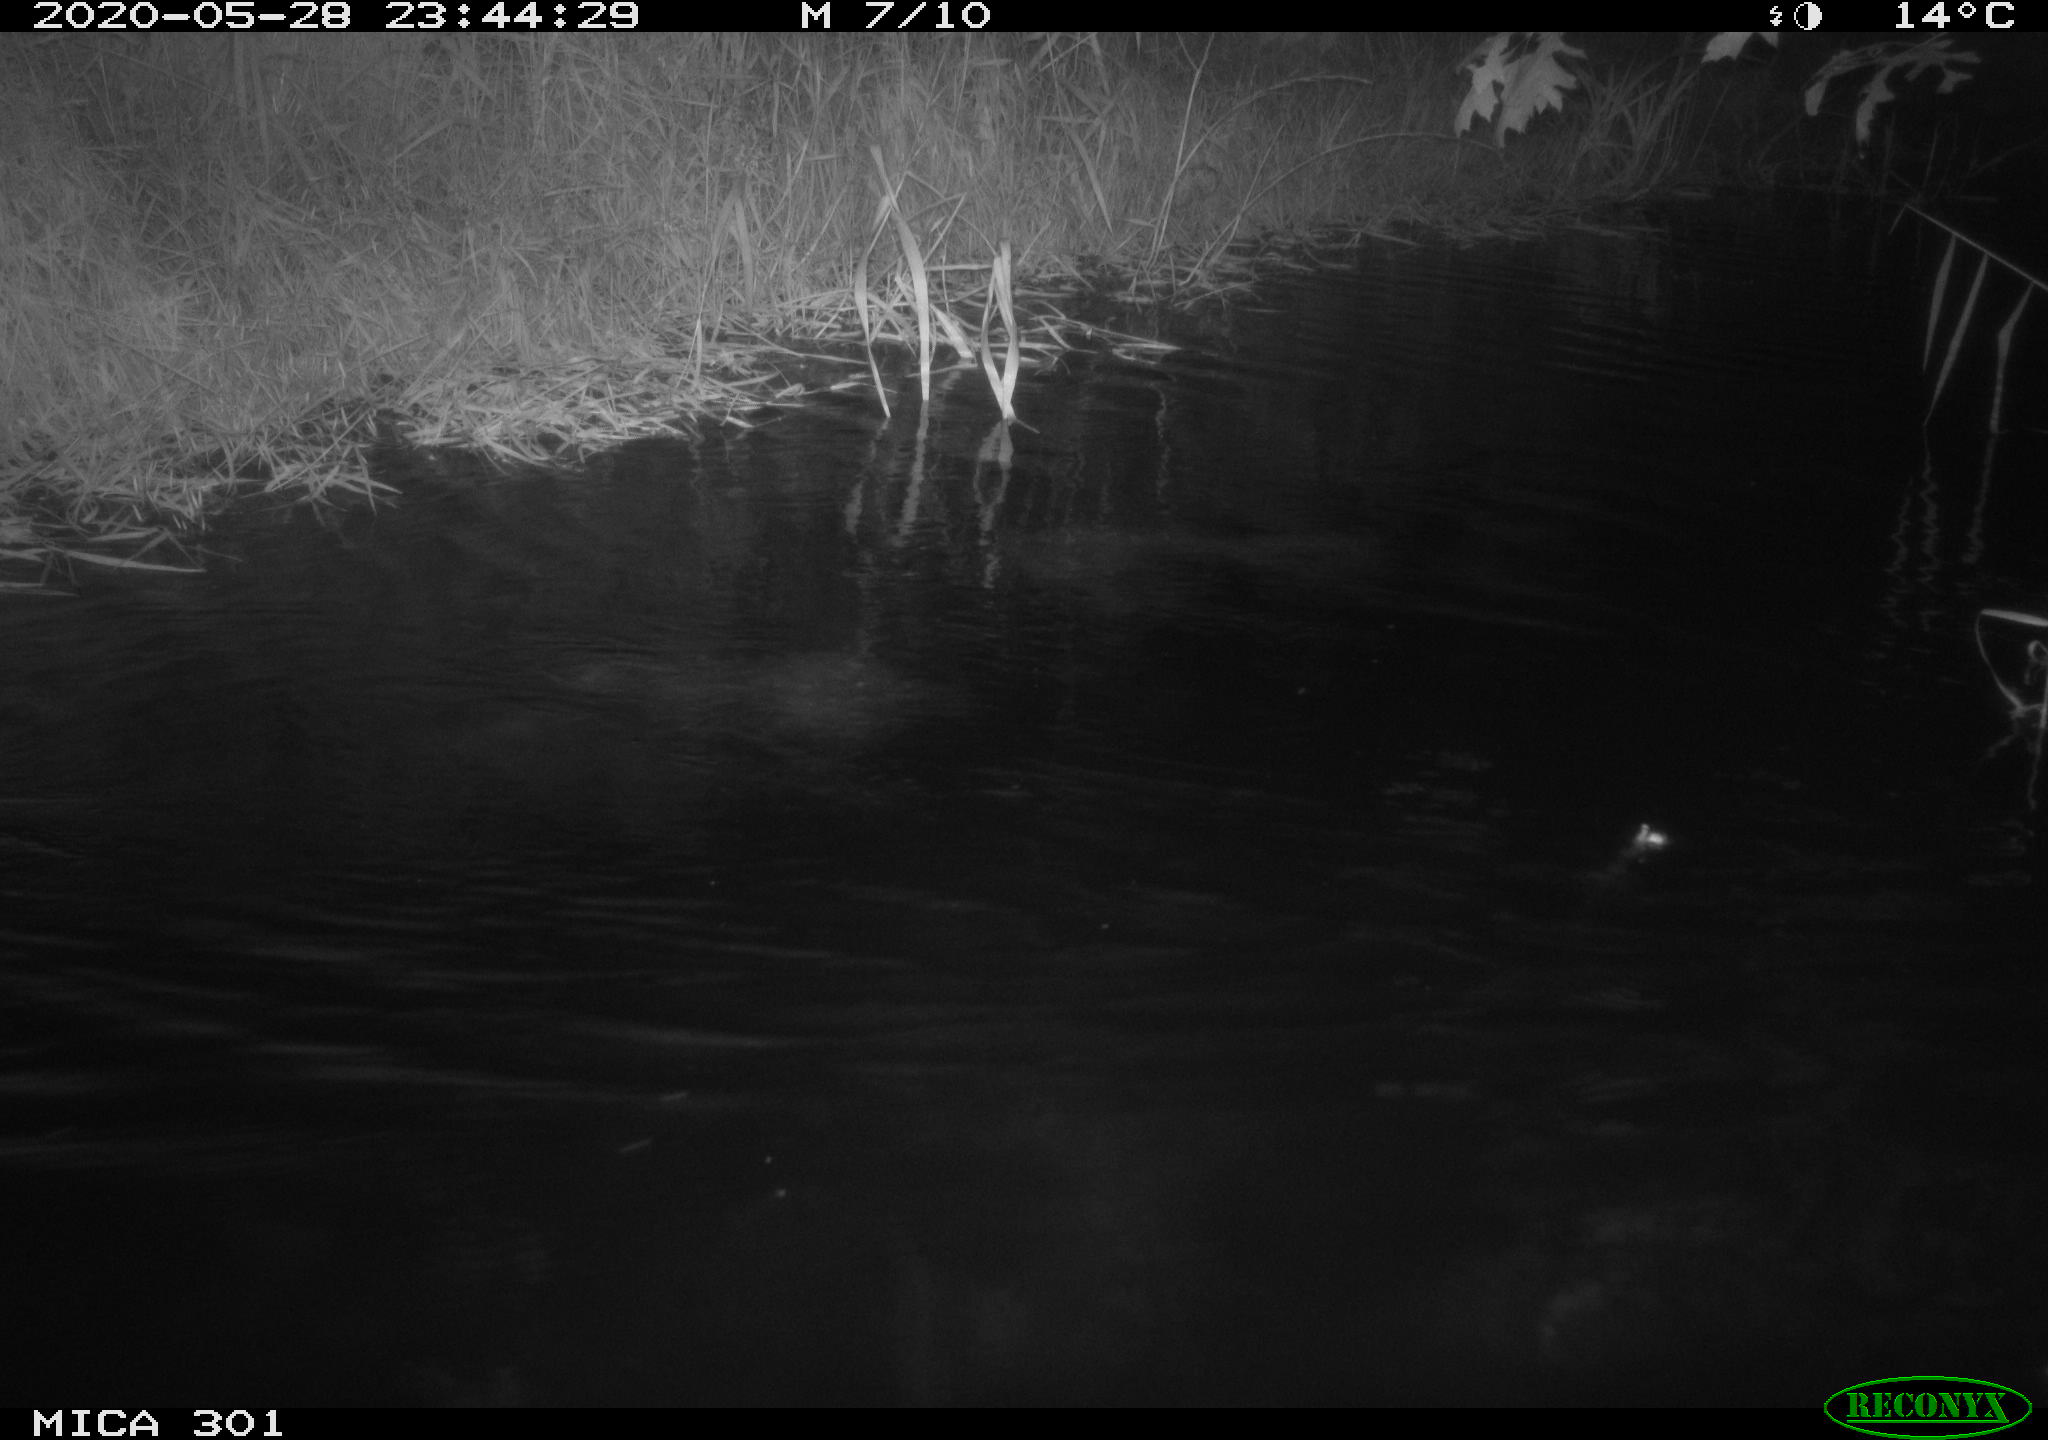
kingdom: Animalia
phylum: Chordata
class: Mammalia
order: Rodentia
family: Castoridae
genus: Castor
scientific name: Castor fiber
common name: Eurasian beaver
